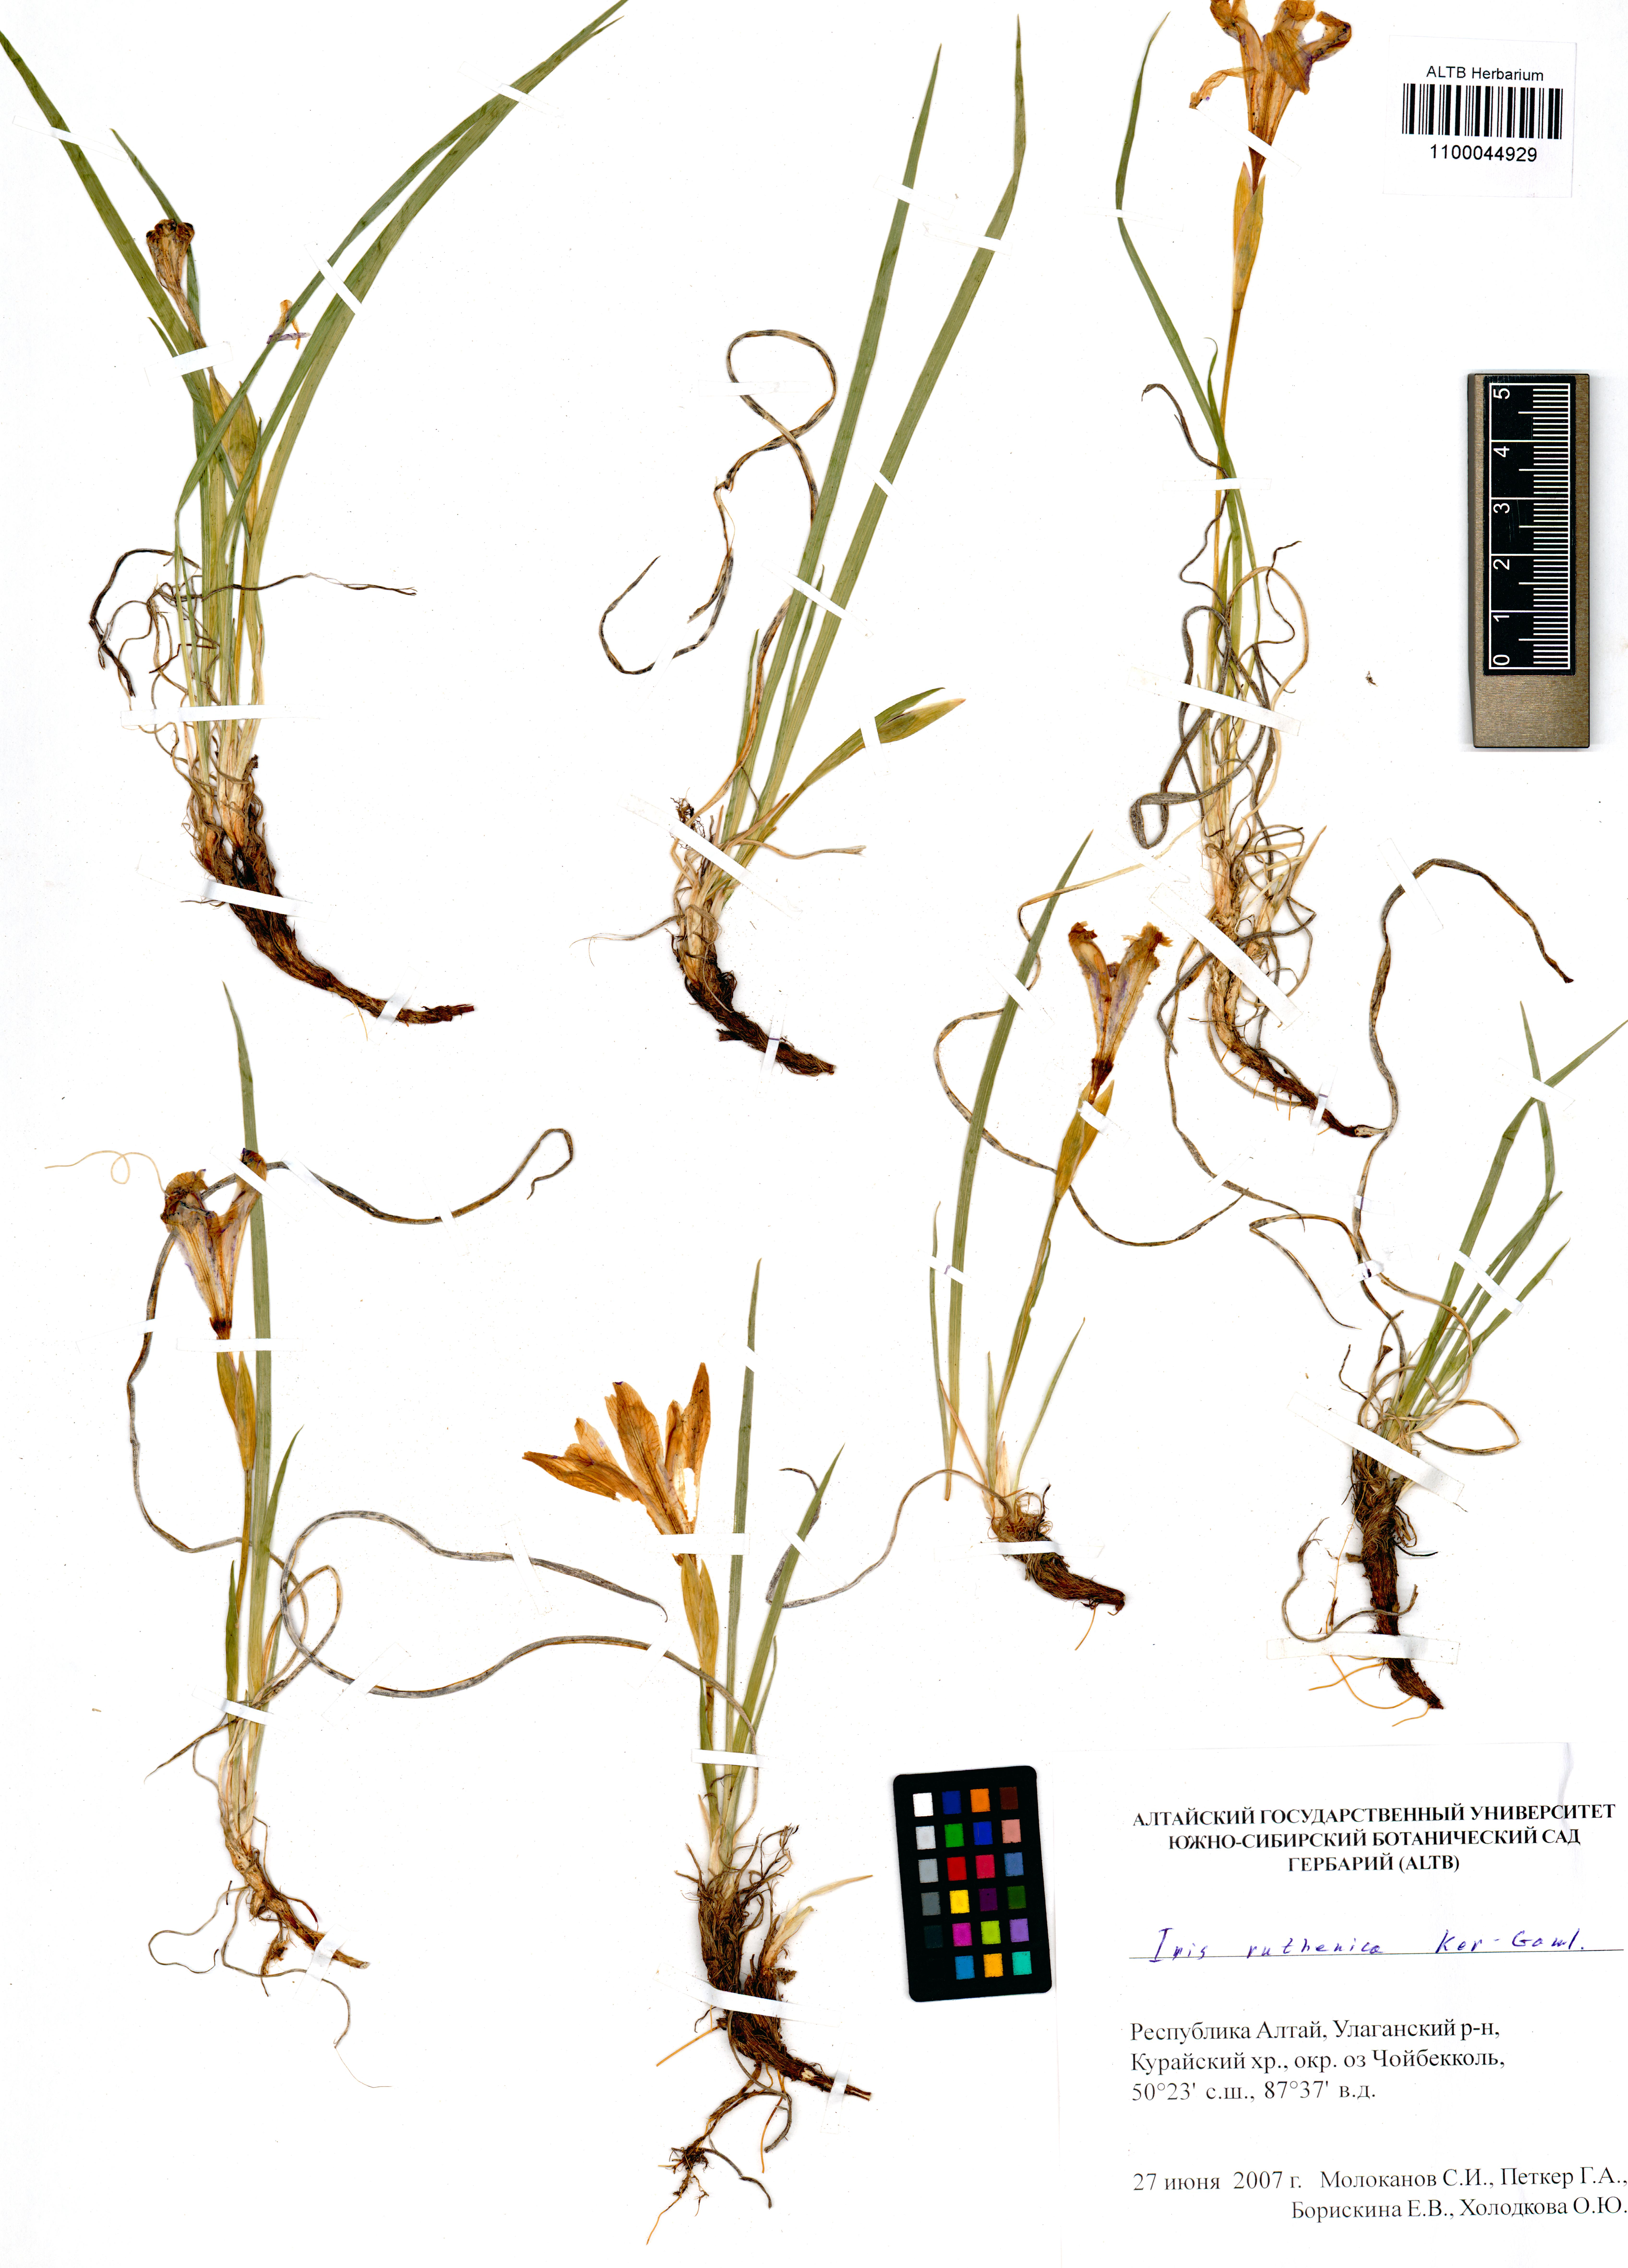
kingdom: Plantae
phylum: Tracheophyta
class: Liliopsida
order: Asparagales
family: Iridaceae
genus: Iris
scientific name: Iris ruthenica
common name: Purple-bract iris
